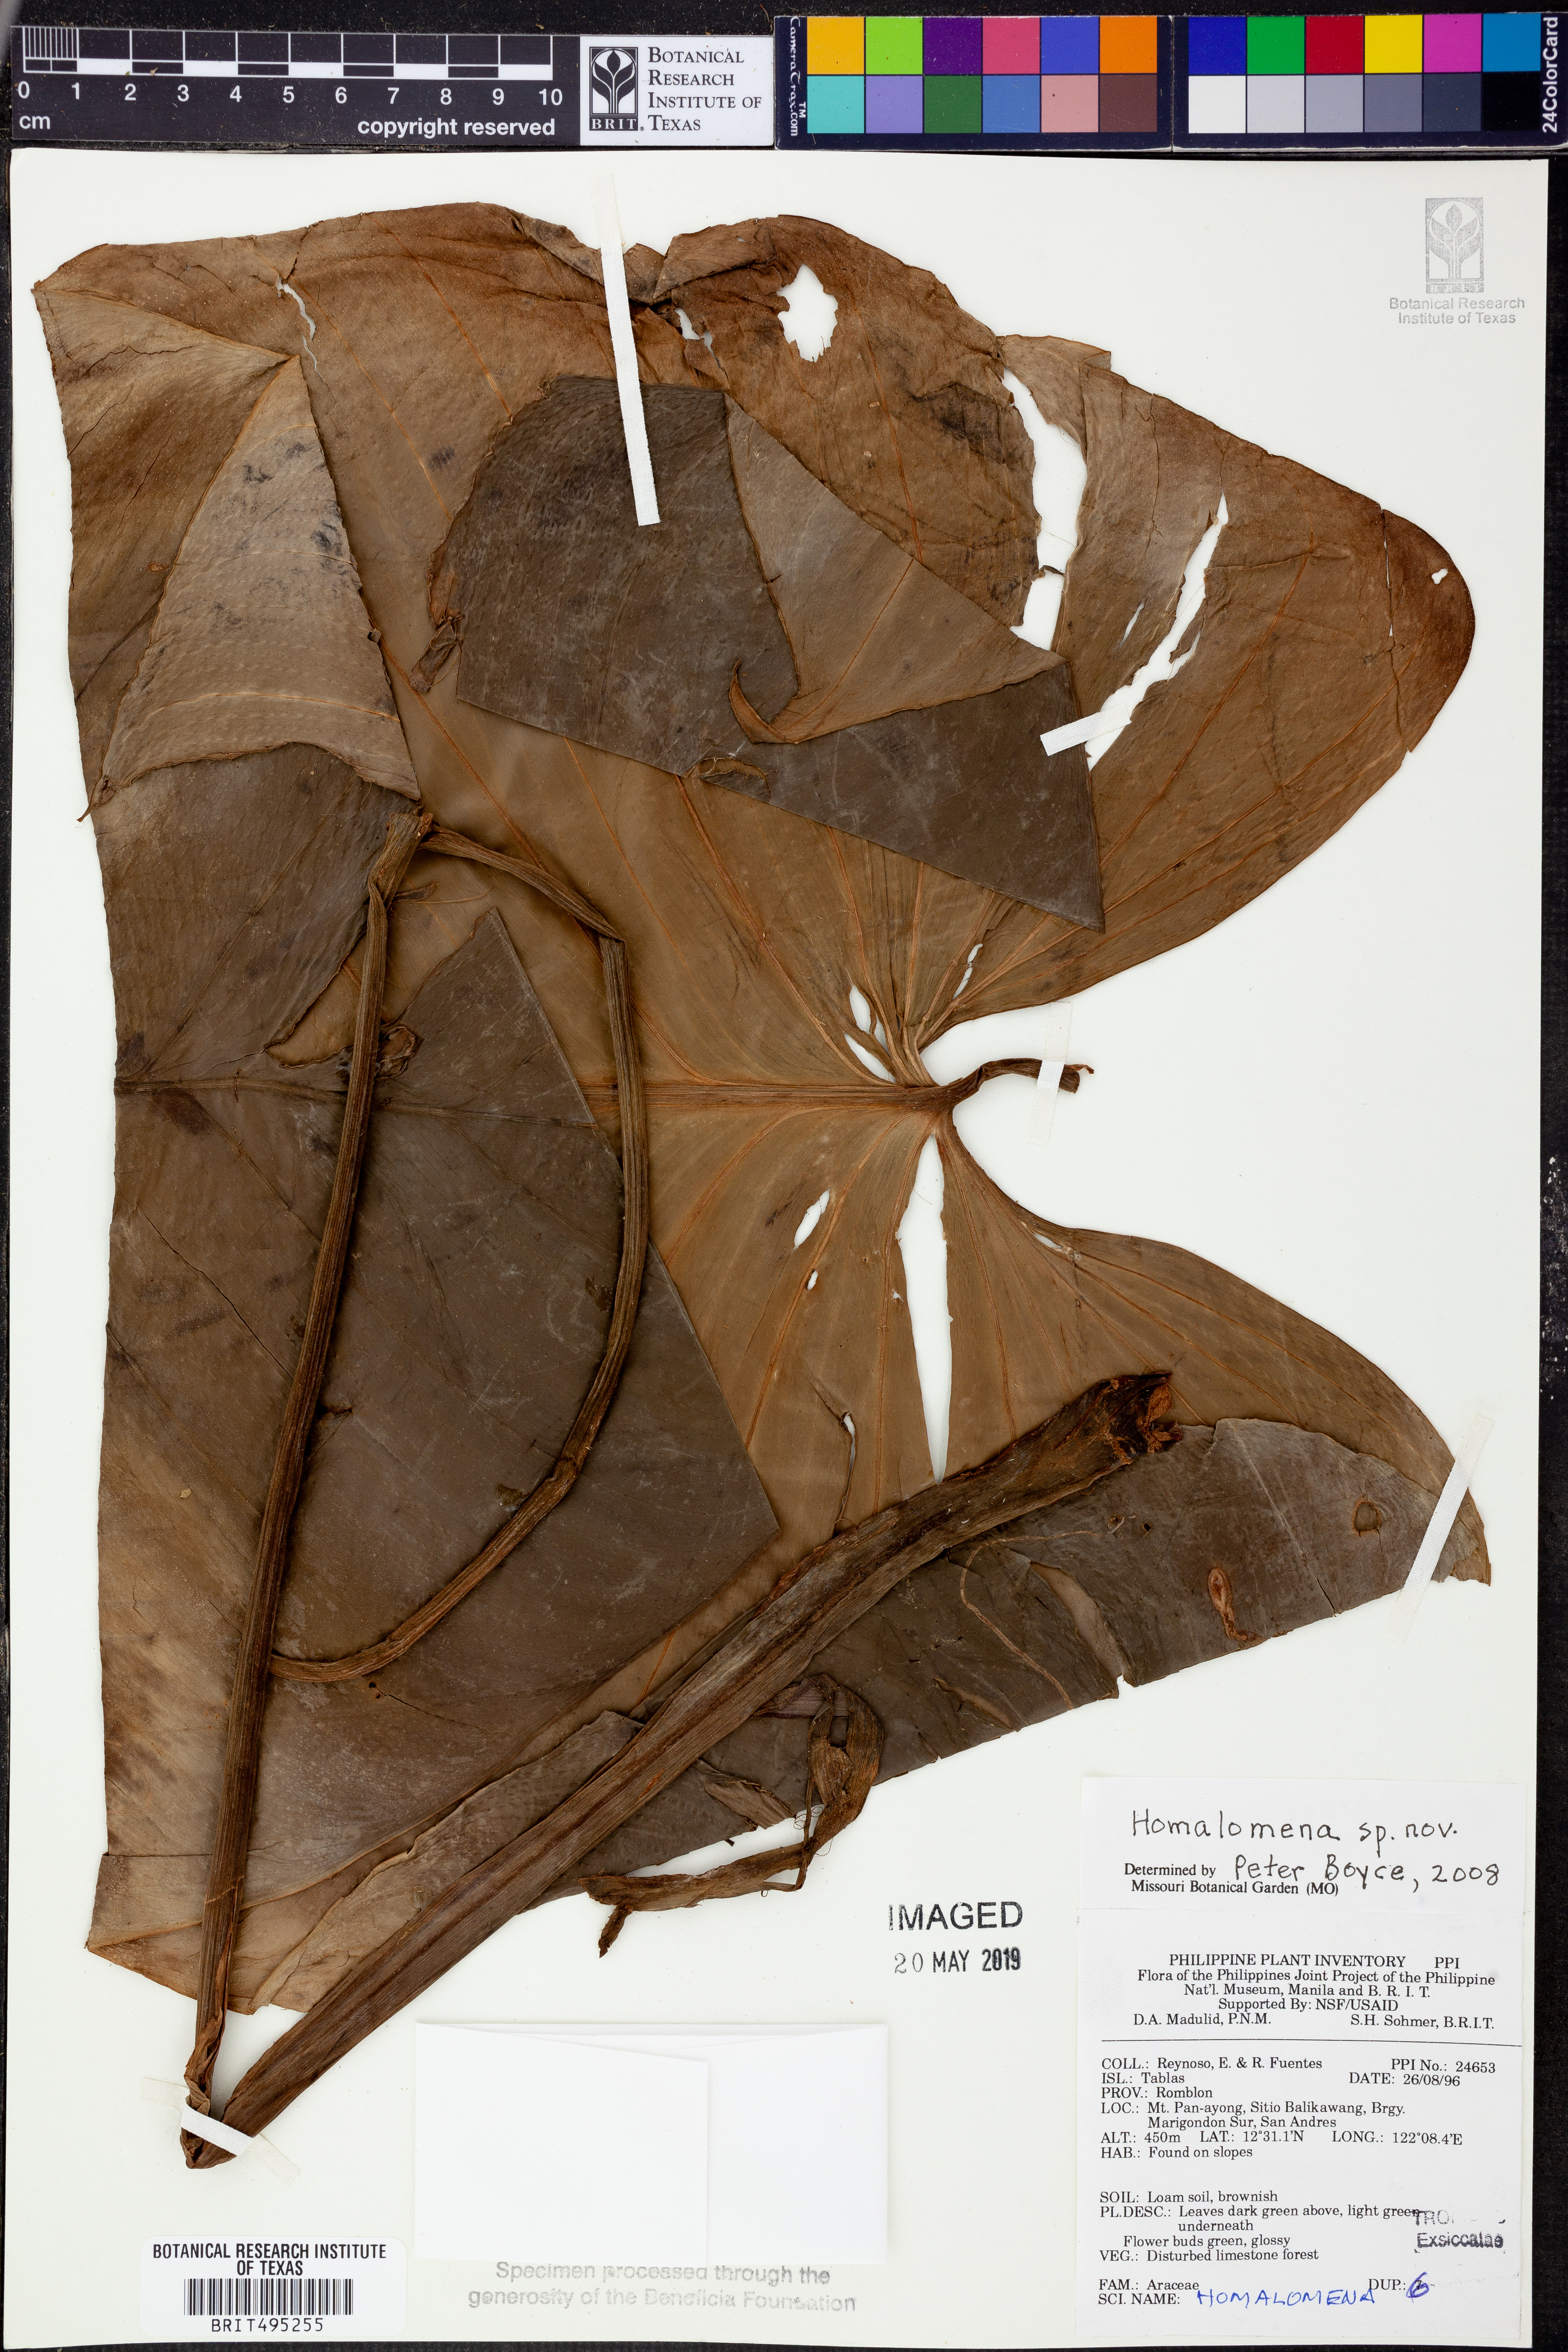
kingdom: Plantae
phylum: Tracheophyta
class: Liliopsida
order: Alismatales
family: Araceae
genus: Homalomena
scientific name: Homalomena
